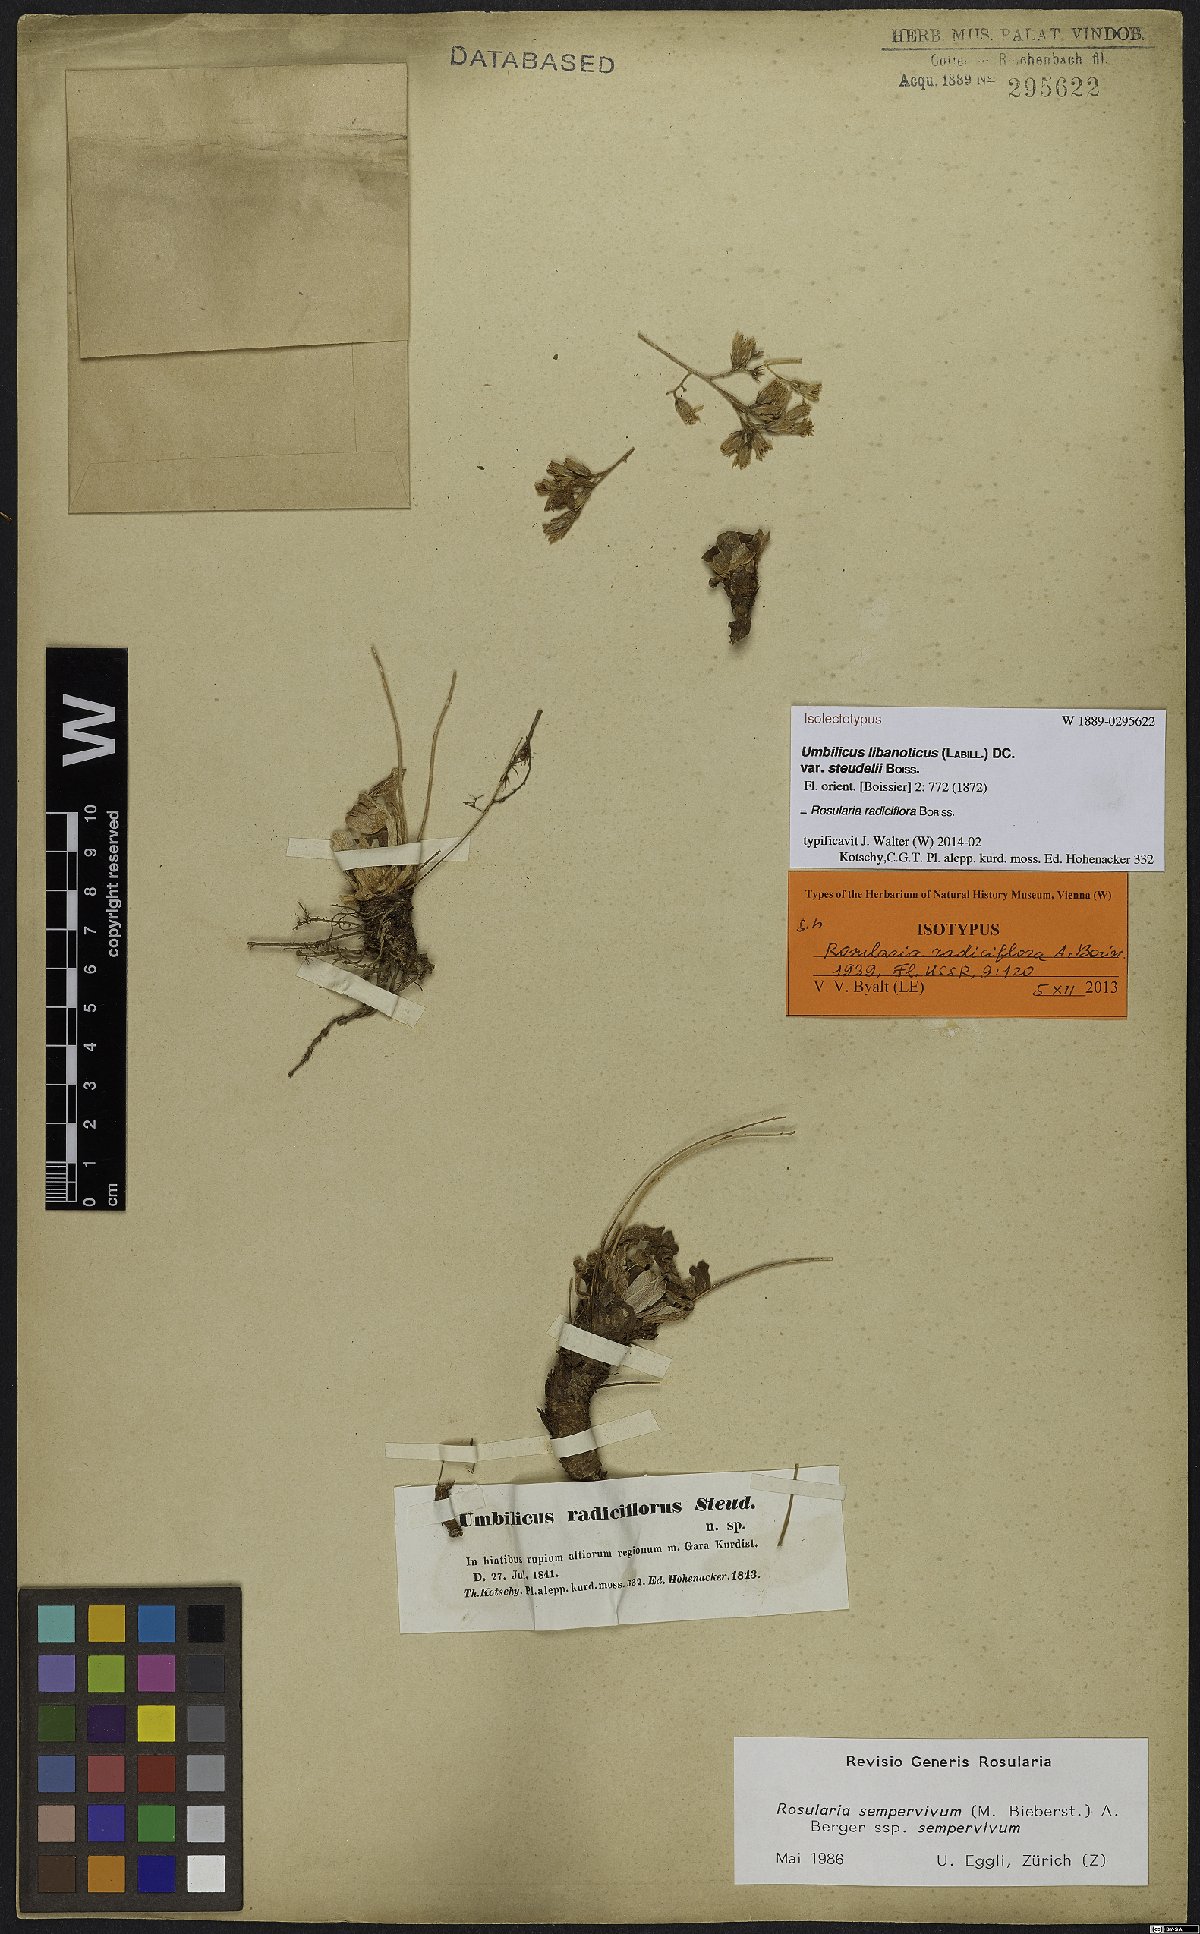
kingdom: Plantae
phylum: Tracheophyta
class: Magnoliopsida
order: Saxifragales
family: Crassulaceae
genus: Rosularia
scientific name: Rosularia sempervivum
